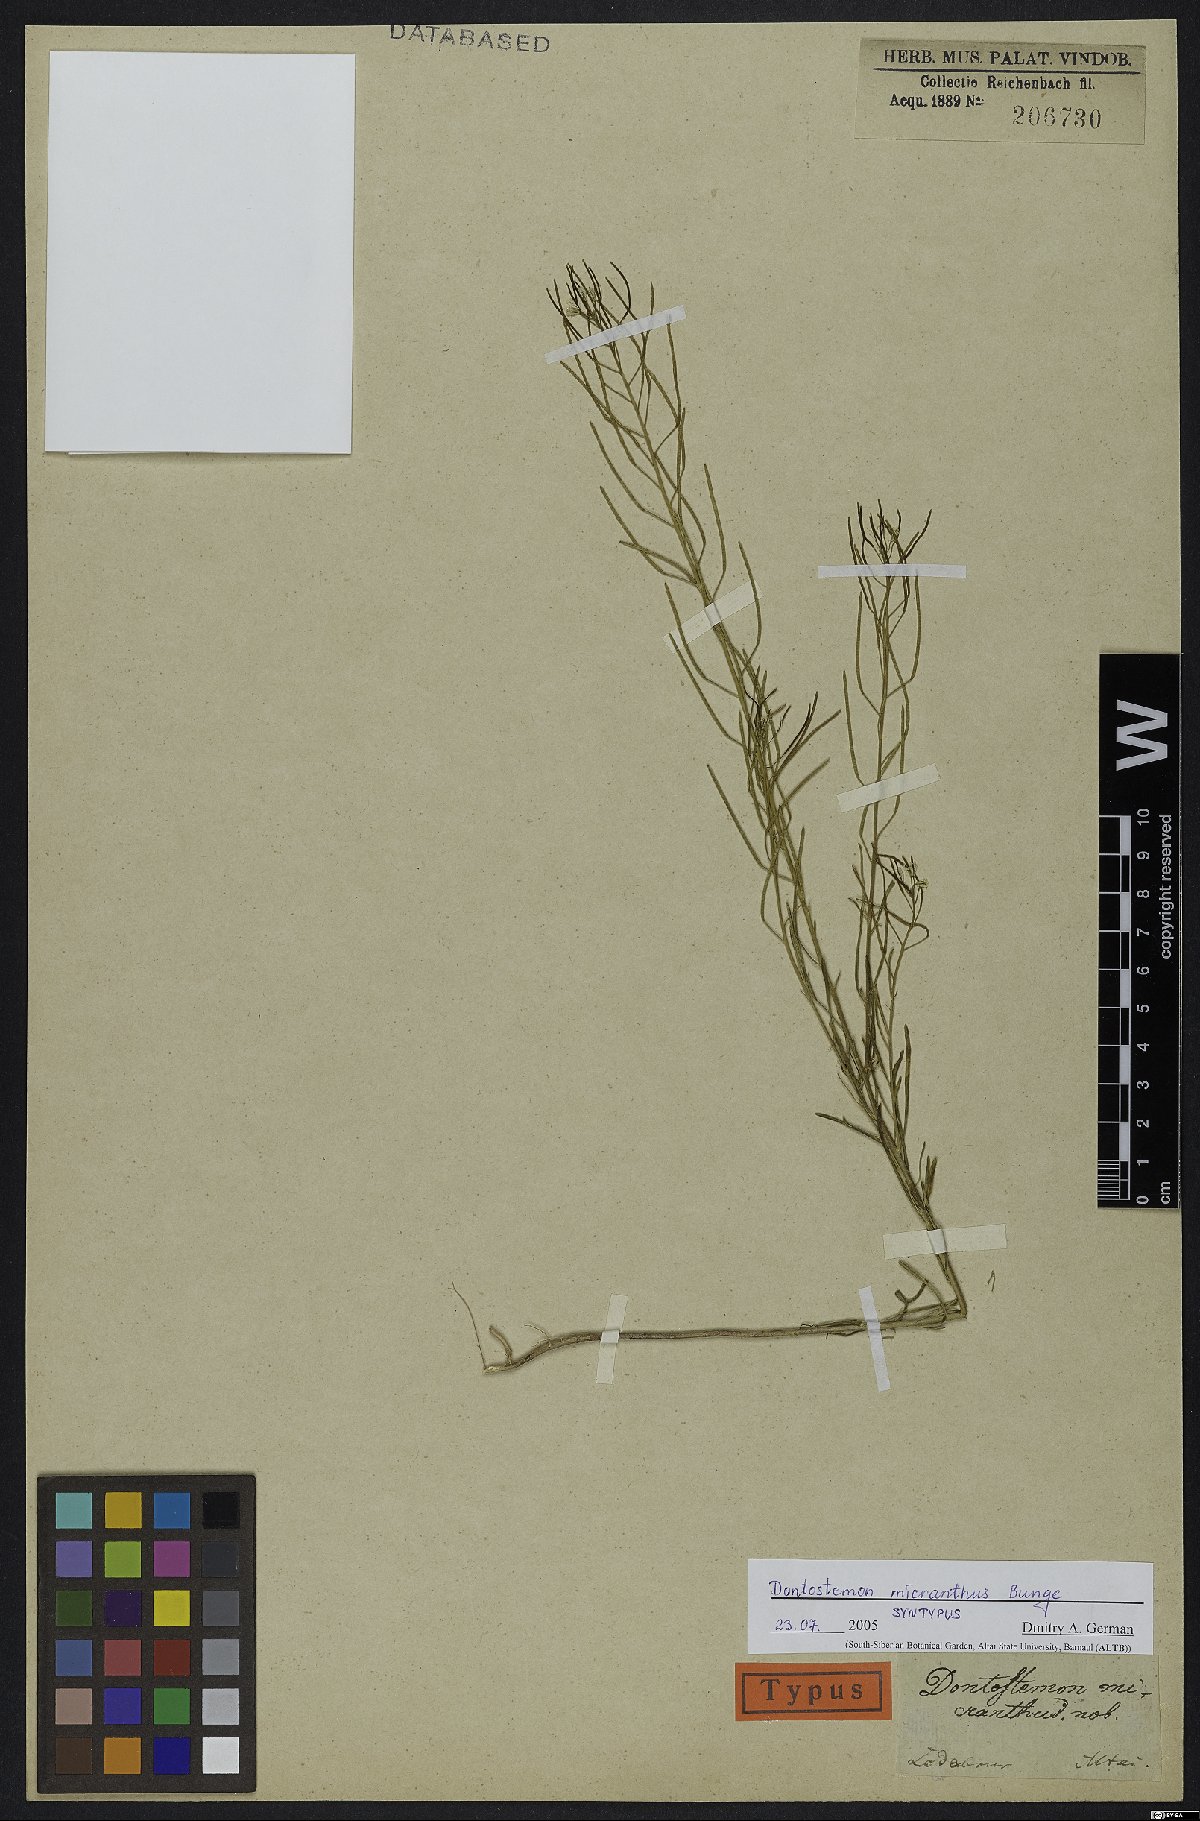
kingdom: Plantae
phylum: Tracheophyta
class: Magnoliopsida
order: Brassicales
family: Brassicaceae
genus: Dontostemon
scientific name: Dontostemon micranthus
